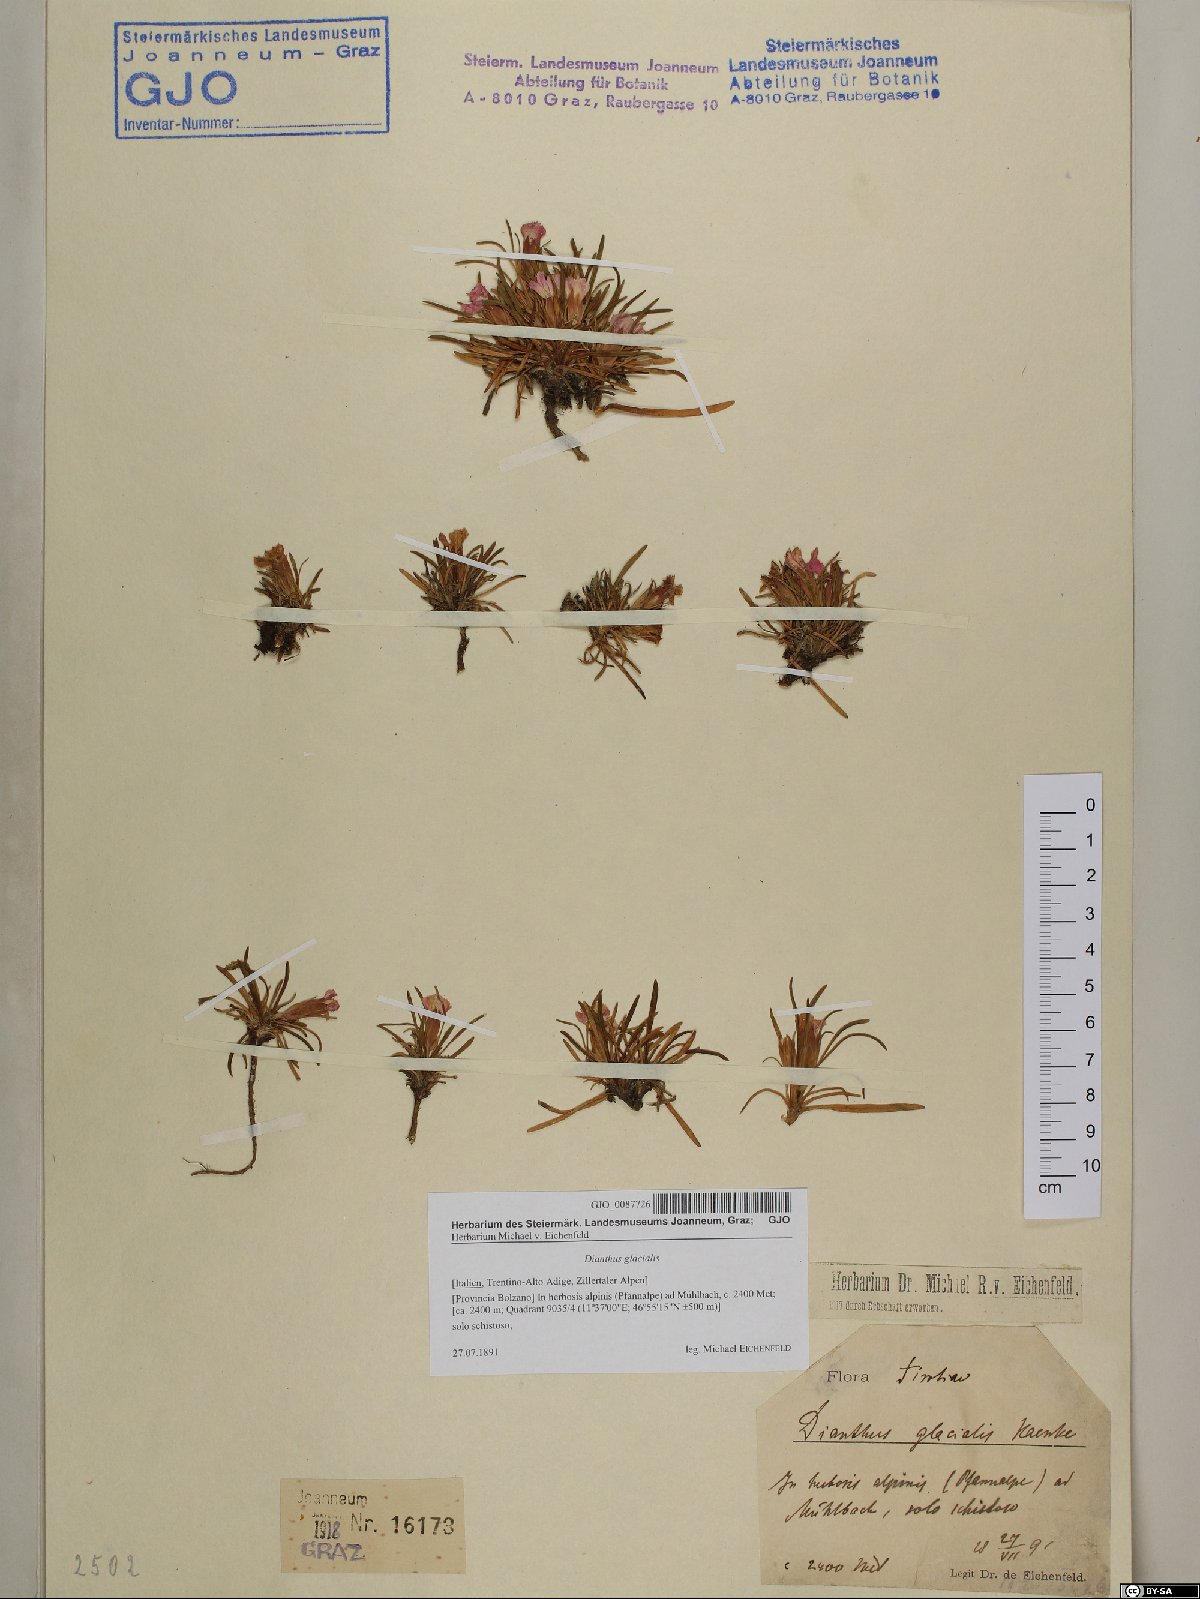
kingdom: Plantae
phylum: Tracheophyta
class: Magnoliopsida
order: Caryophyllales
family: Caryophyllaceae
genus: Dianthus
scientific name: Dianthus glacialis
